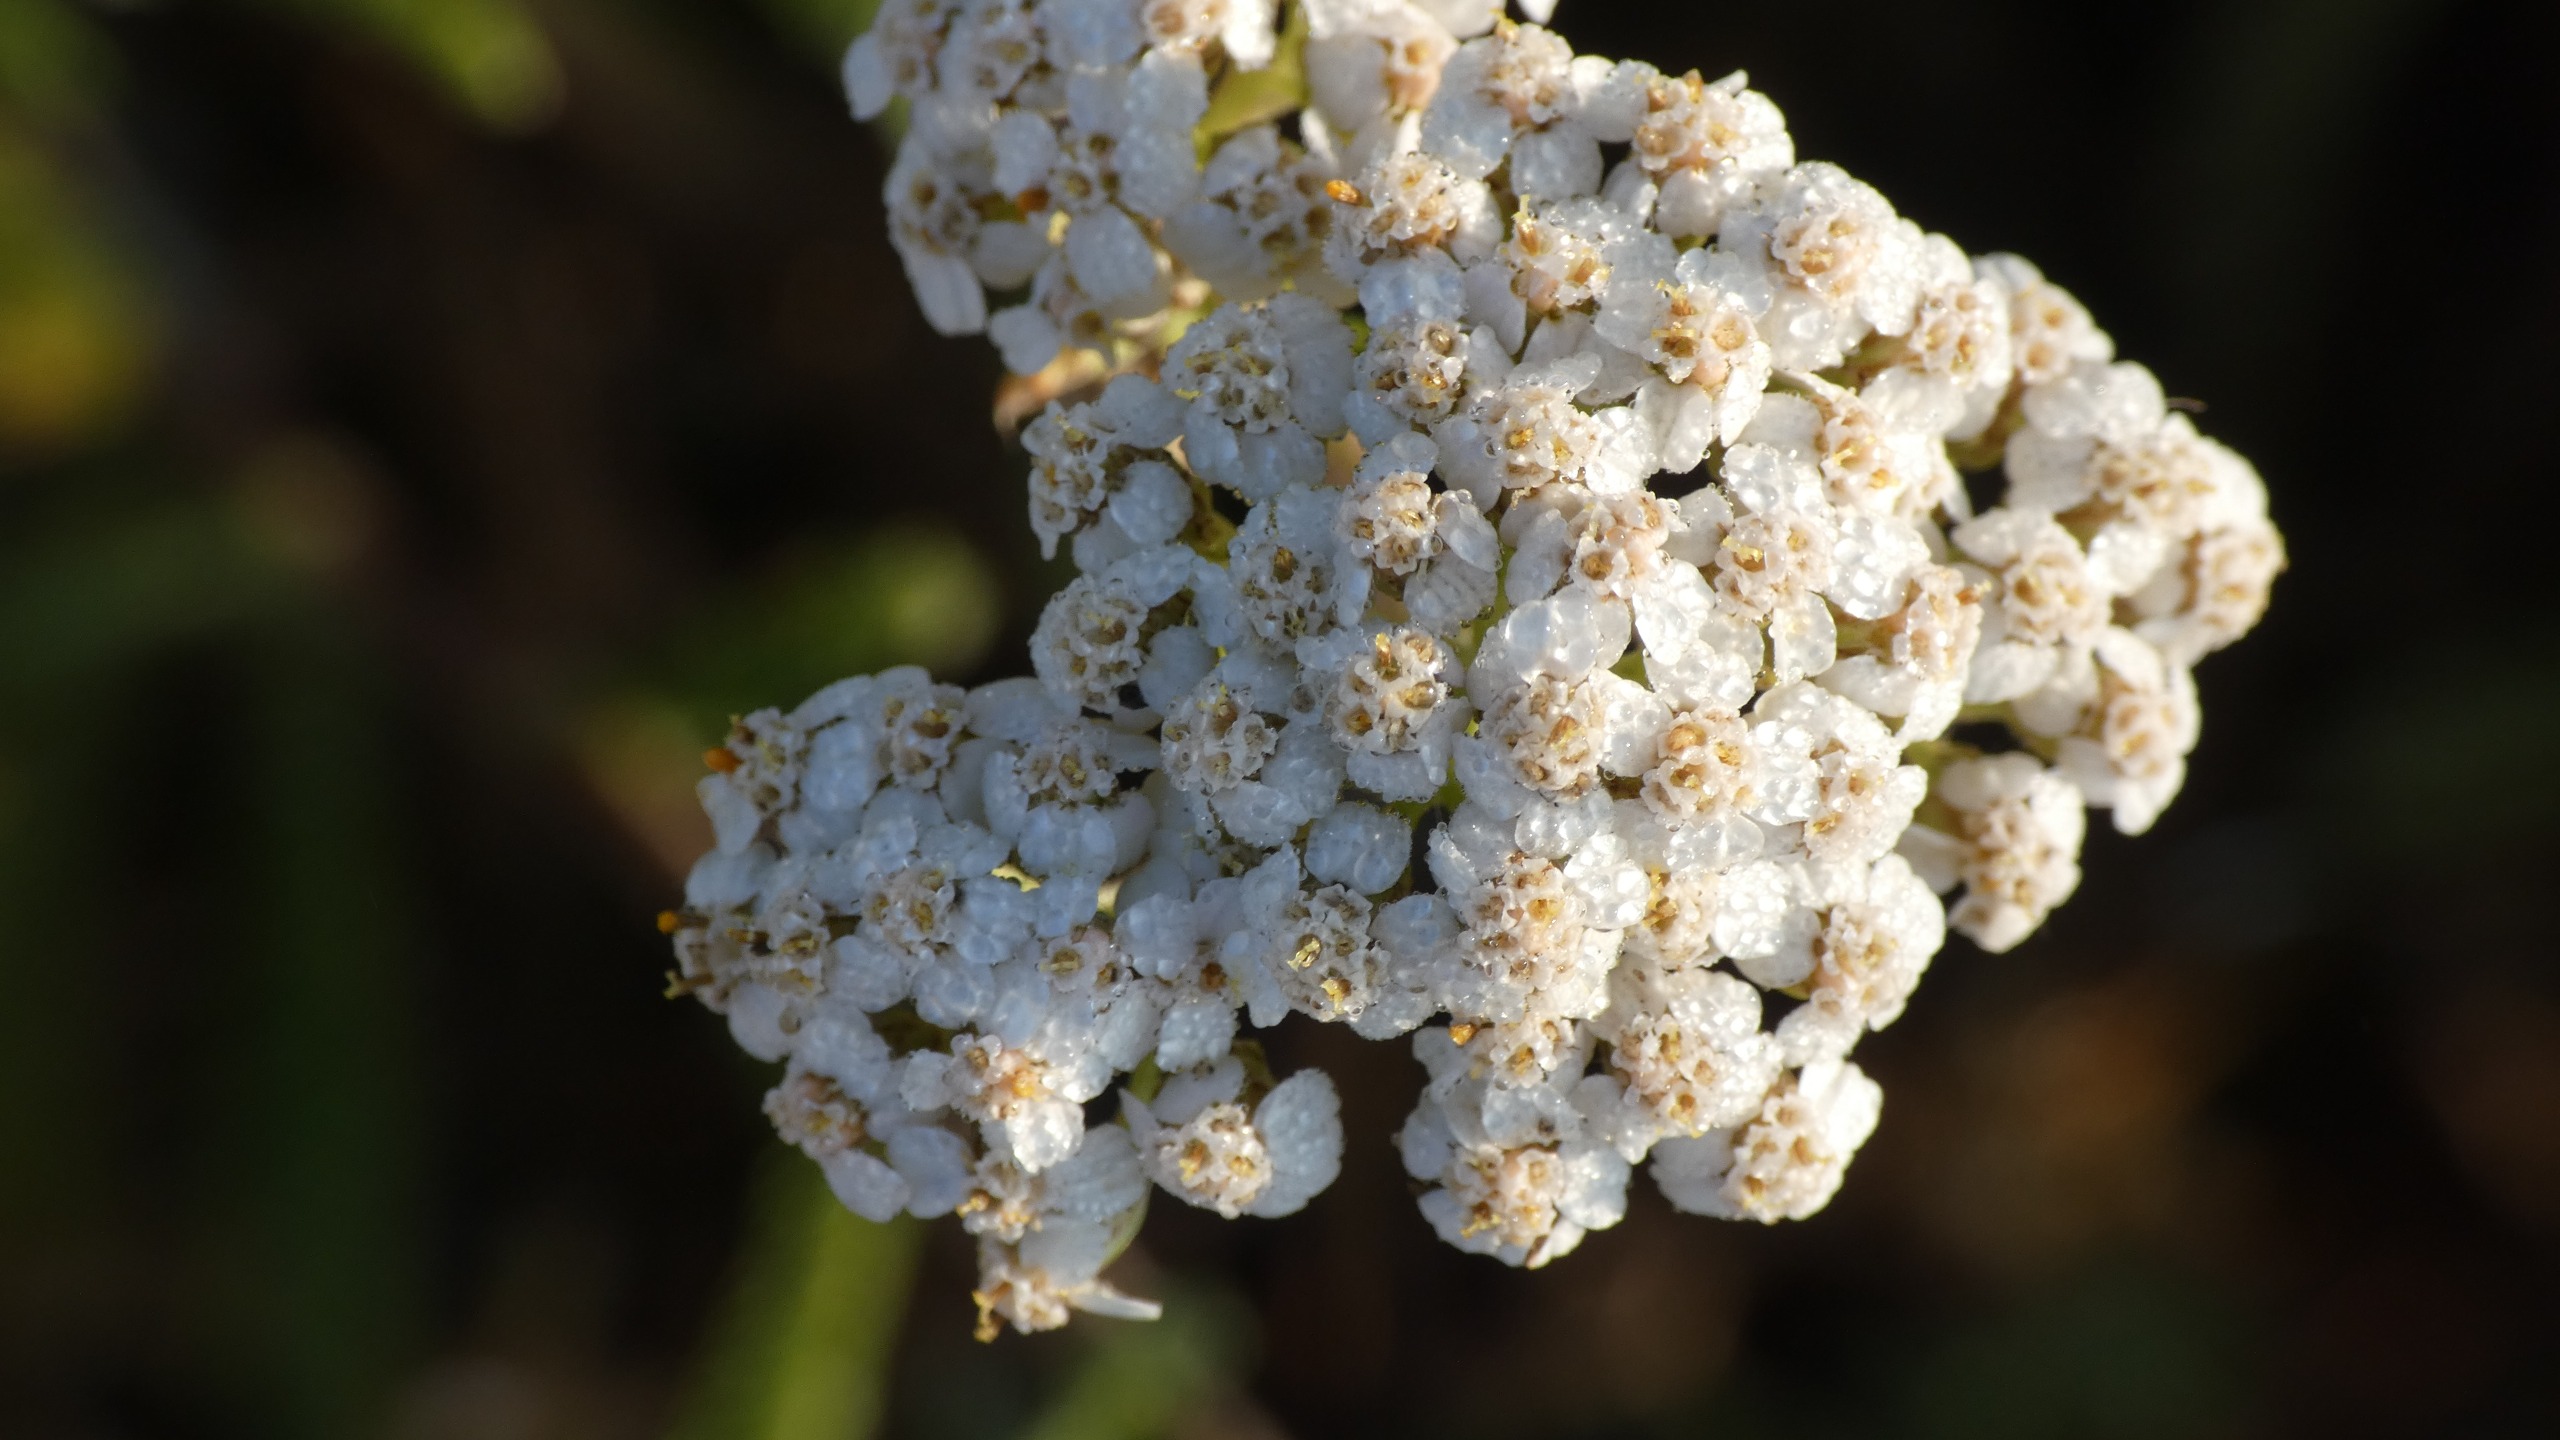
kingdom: Plantae
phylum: Tracheophyta
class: Magnoliopsida
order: Asterales
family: Asteraceae
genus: Achillea
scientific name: Achillea millefolium
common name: Almindelig røllike
